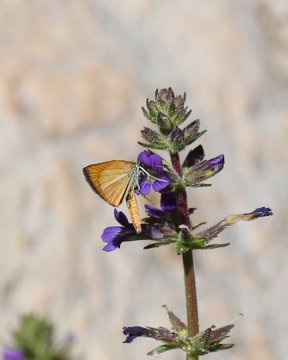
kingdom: Animalia
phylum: Arthropoda
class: Insecta
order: Lepidoptera
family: Hesperiidae
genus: Copaeodes
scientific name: Copaeodes minima
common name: Southern Skipperling
